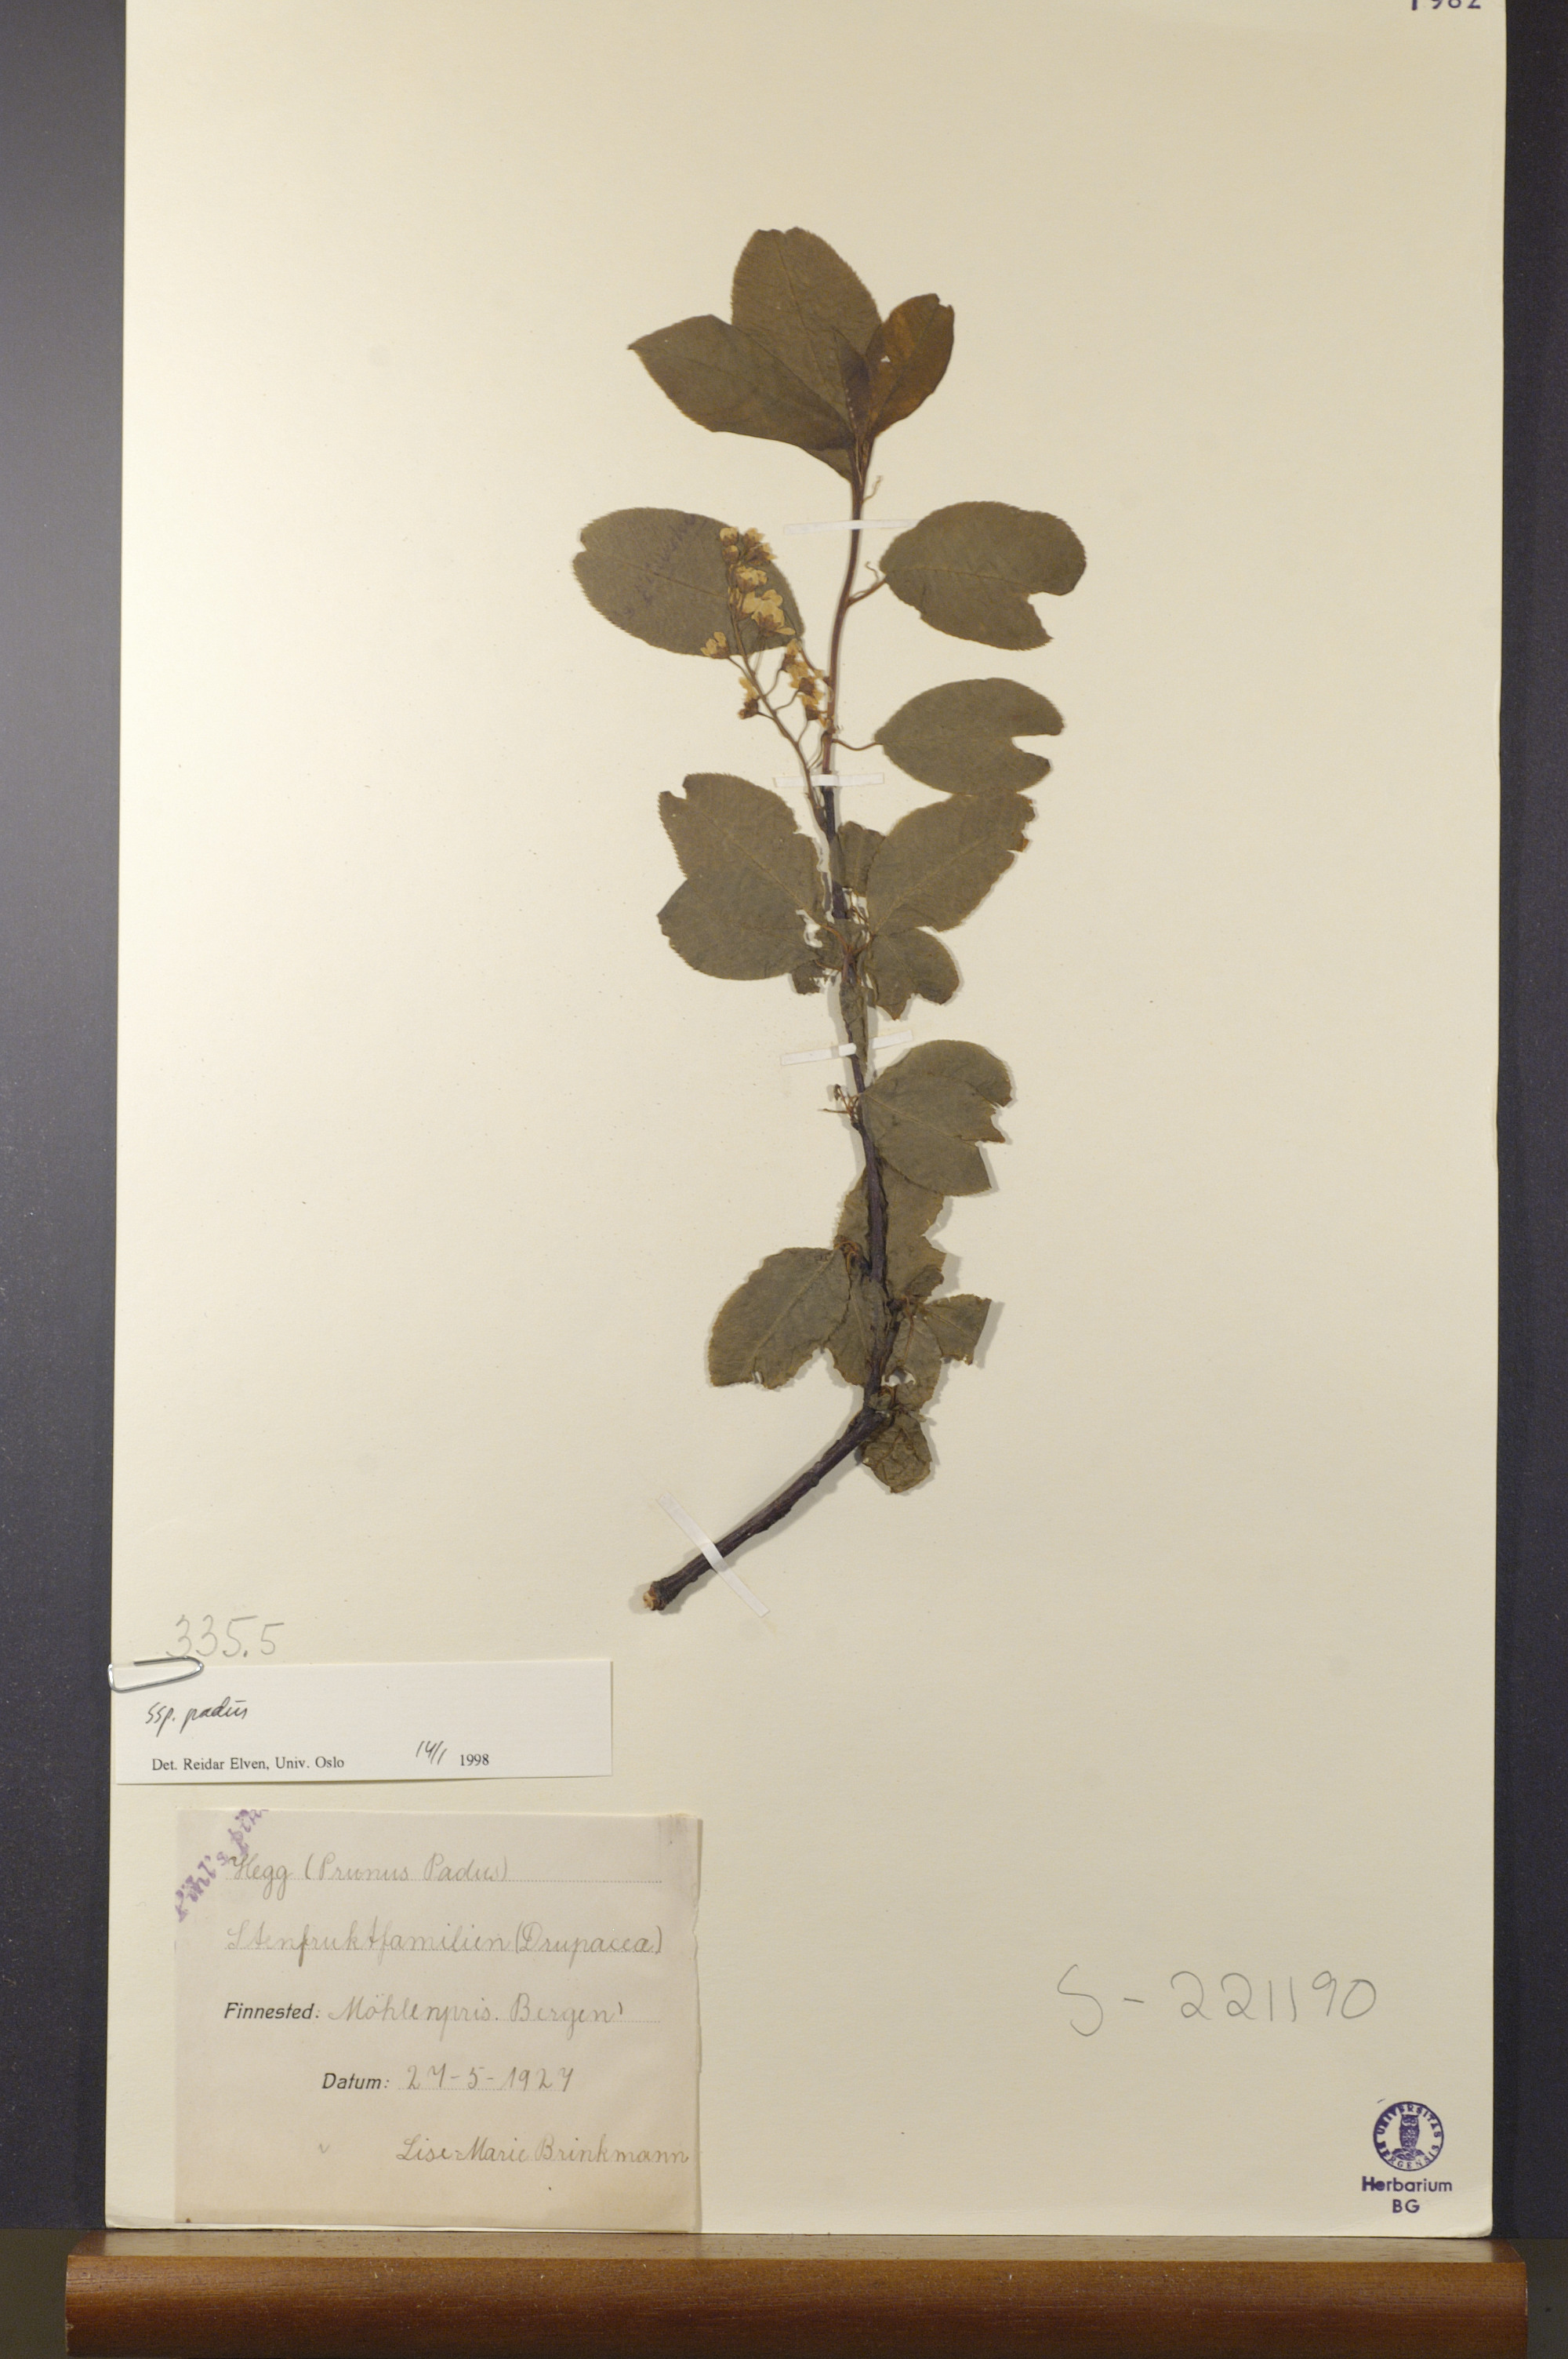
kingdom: Plantae
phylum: Tracheophyta
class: Magnoliopsida
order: Rosales
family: Rosaceae
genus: Prunus
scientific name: Prunus padus
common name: Bird cherry
